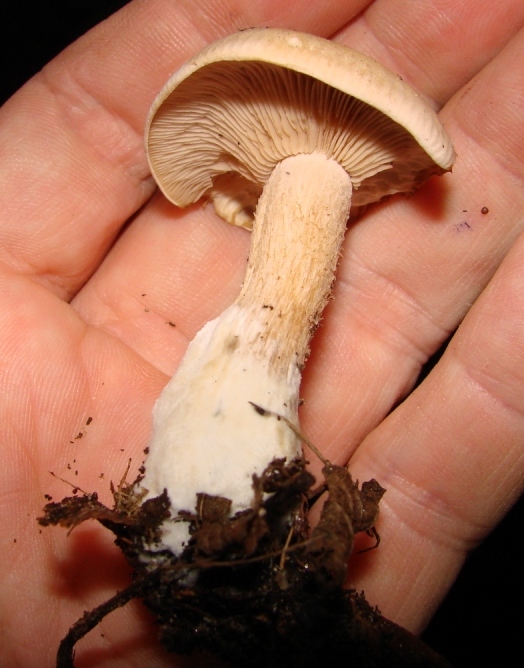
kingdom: Fungi
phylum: Basidiomycota
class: Agaricomycetes
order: Agaricales
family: Tricholomataceae
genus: Lepista
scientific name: Lepista irina
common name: violduftende hekseringshat
